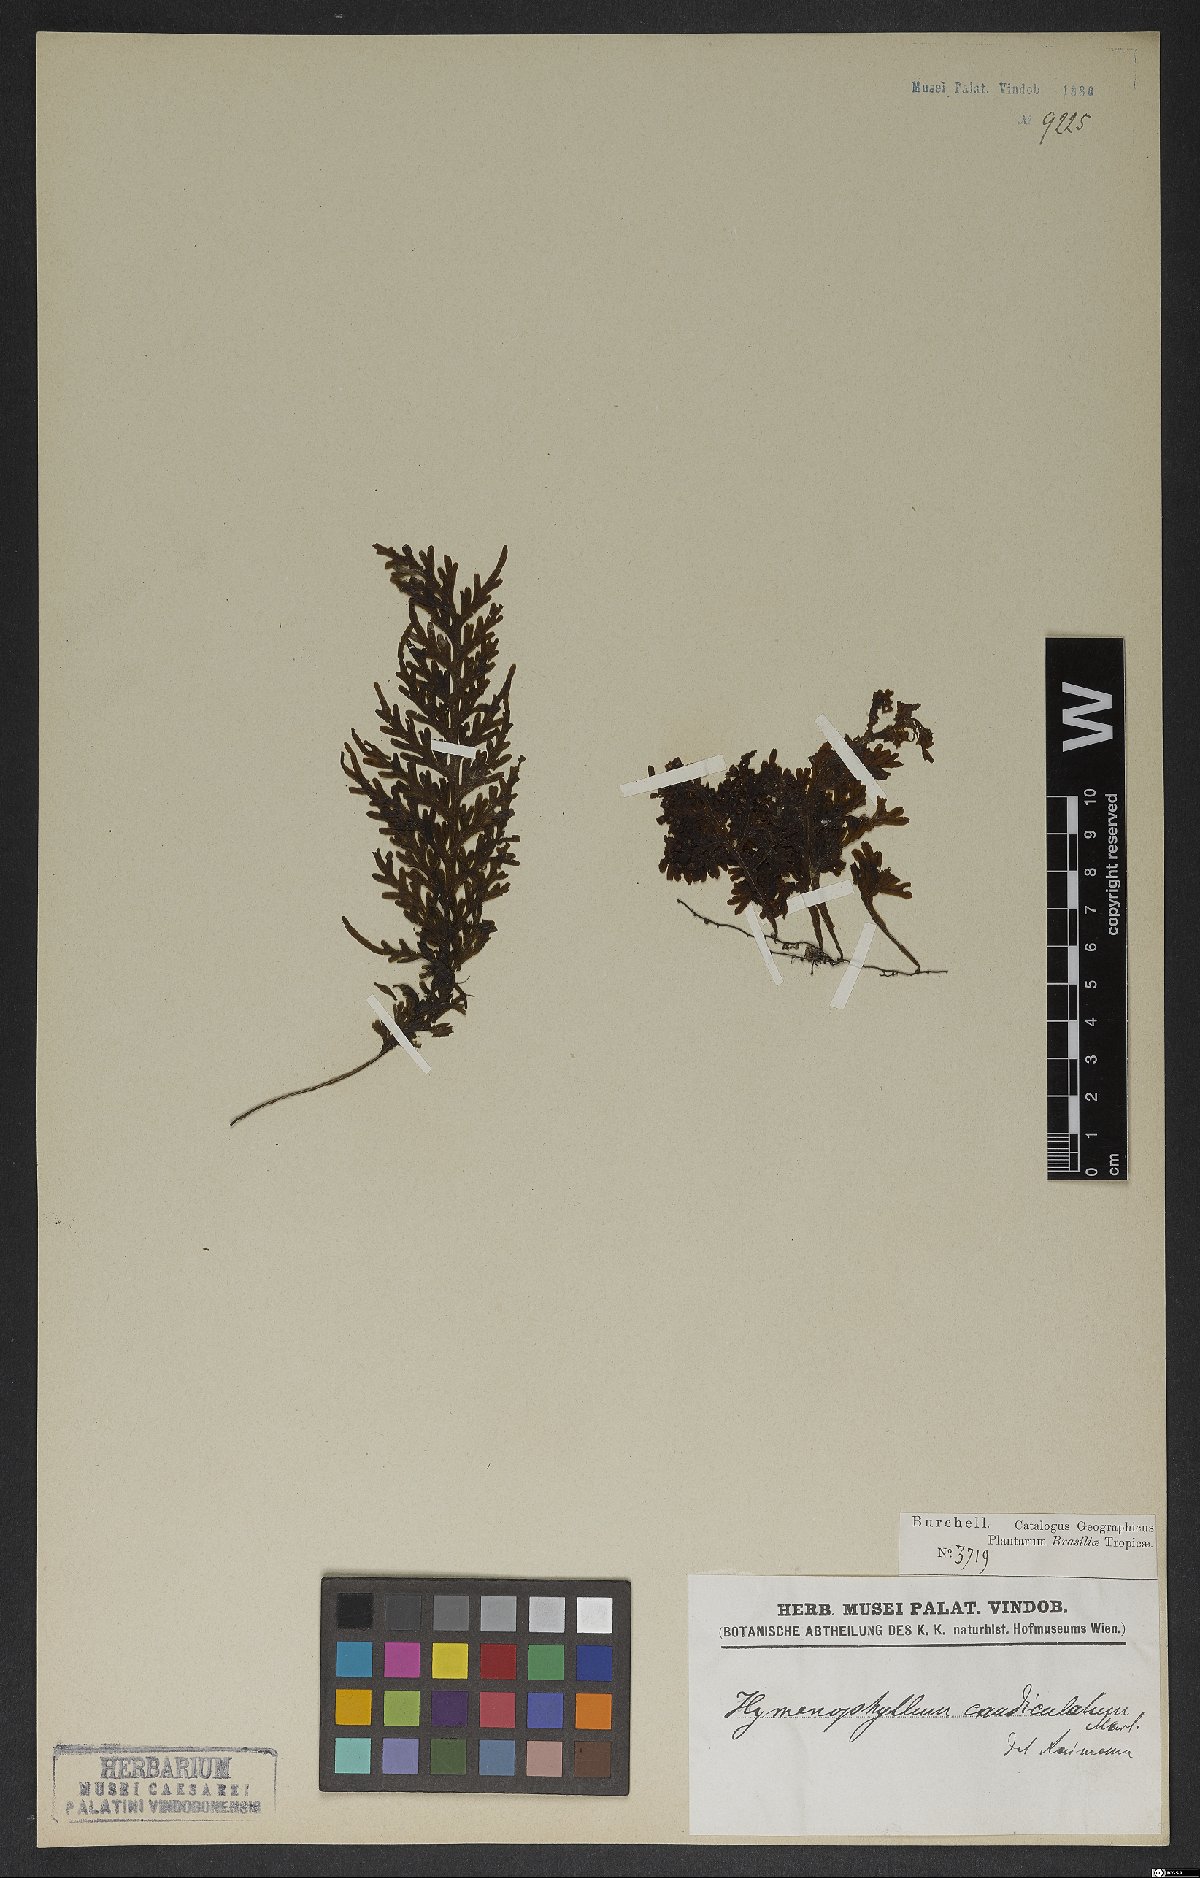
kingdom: Plantae
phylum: Tracheophyta
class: Polypodiopsida
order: Hymenophyllales
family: Hymenophyllaceae
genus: Hymenophyllum
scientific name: Hymenophyllum caudiculatum
